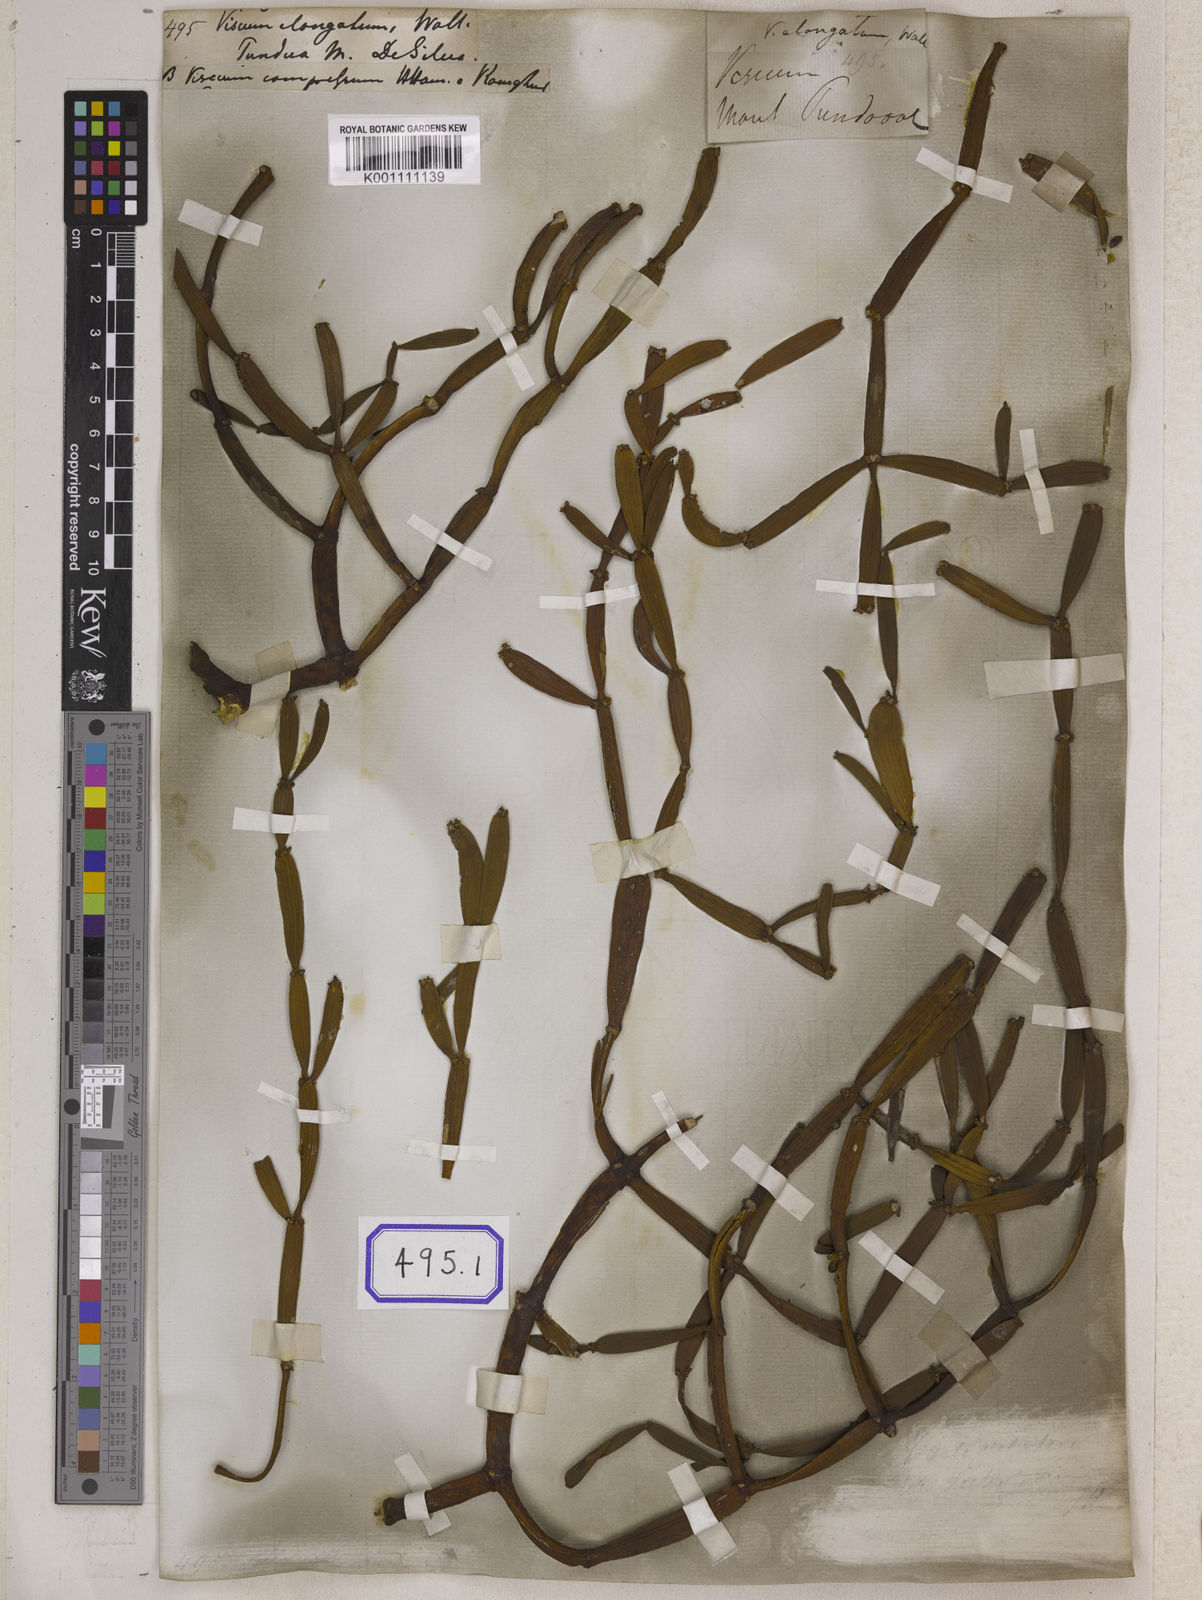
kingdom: Plantae
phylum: Tracheophyta
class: Magnoliopsida
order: Santalales
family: Viscaceae
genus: Viscum
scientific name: Viscum
